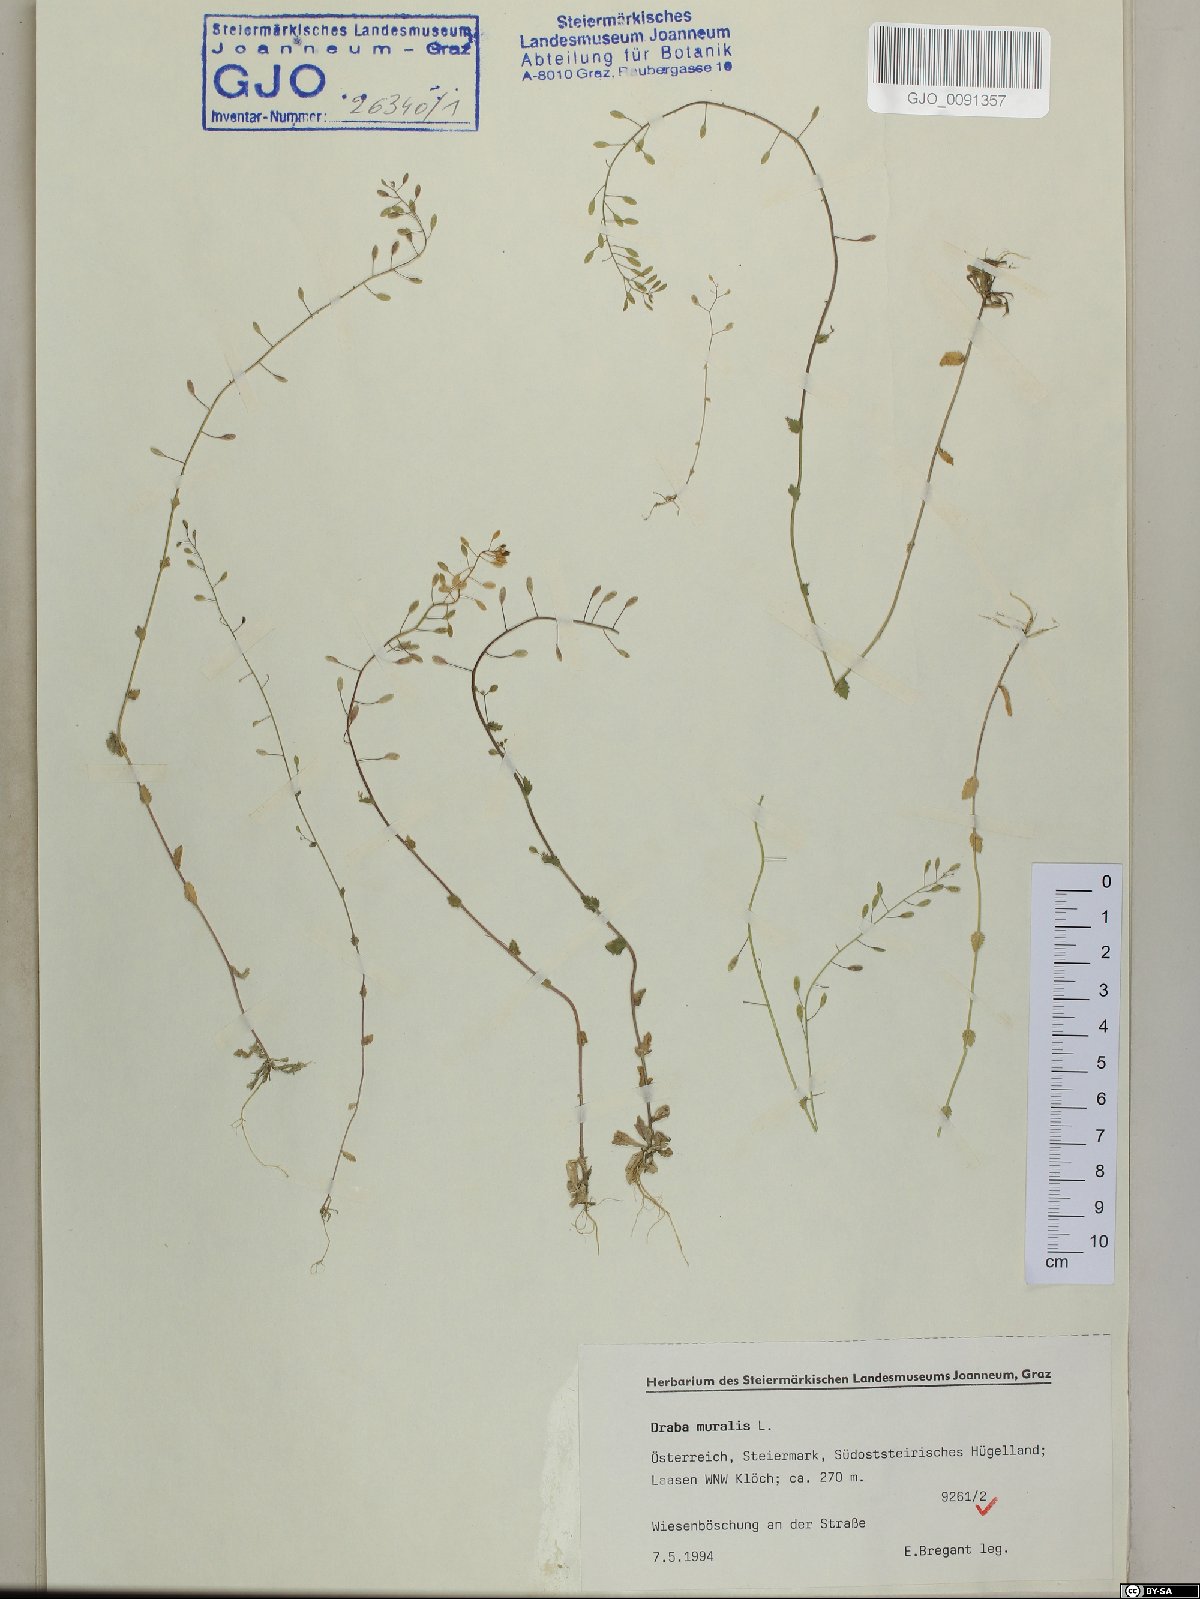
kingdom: Plantae
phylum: Tracheophyta
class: Magnoliopsida
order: Brassicales
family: Brassicaceae
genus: Drabella
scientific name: Drabella muralis
